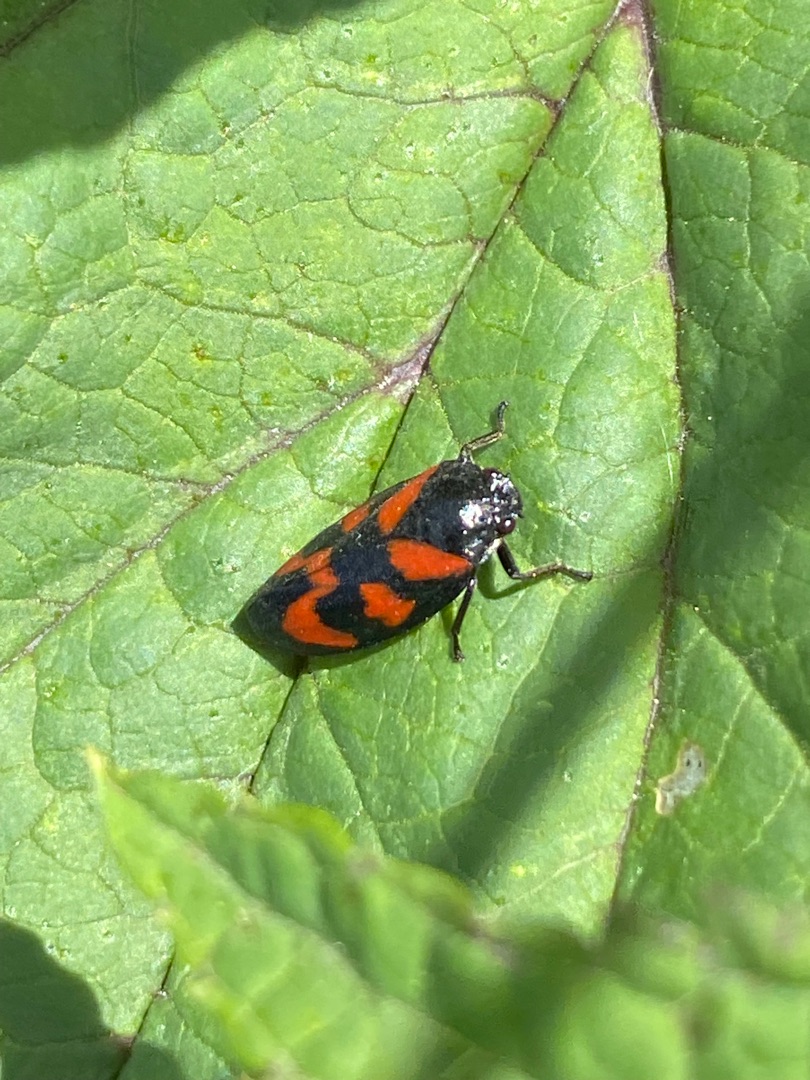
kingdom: Animalia
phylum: Arthropoda
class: Insecta
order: Hemiptera
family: Cercopidae
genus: Cercopis
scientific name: Cercopis vulnerata
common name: Blodcikade
